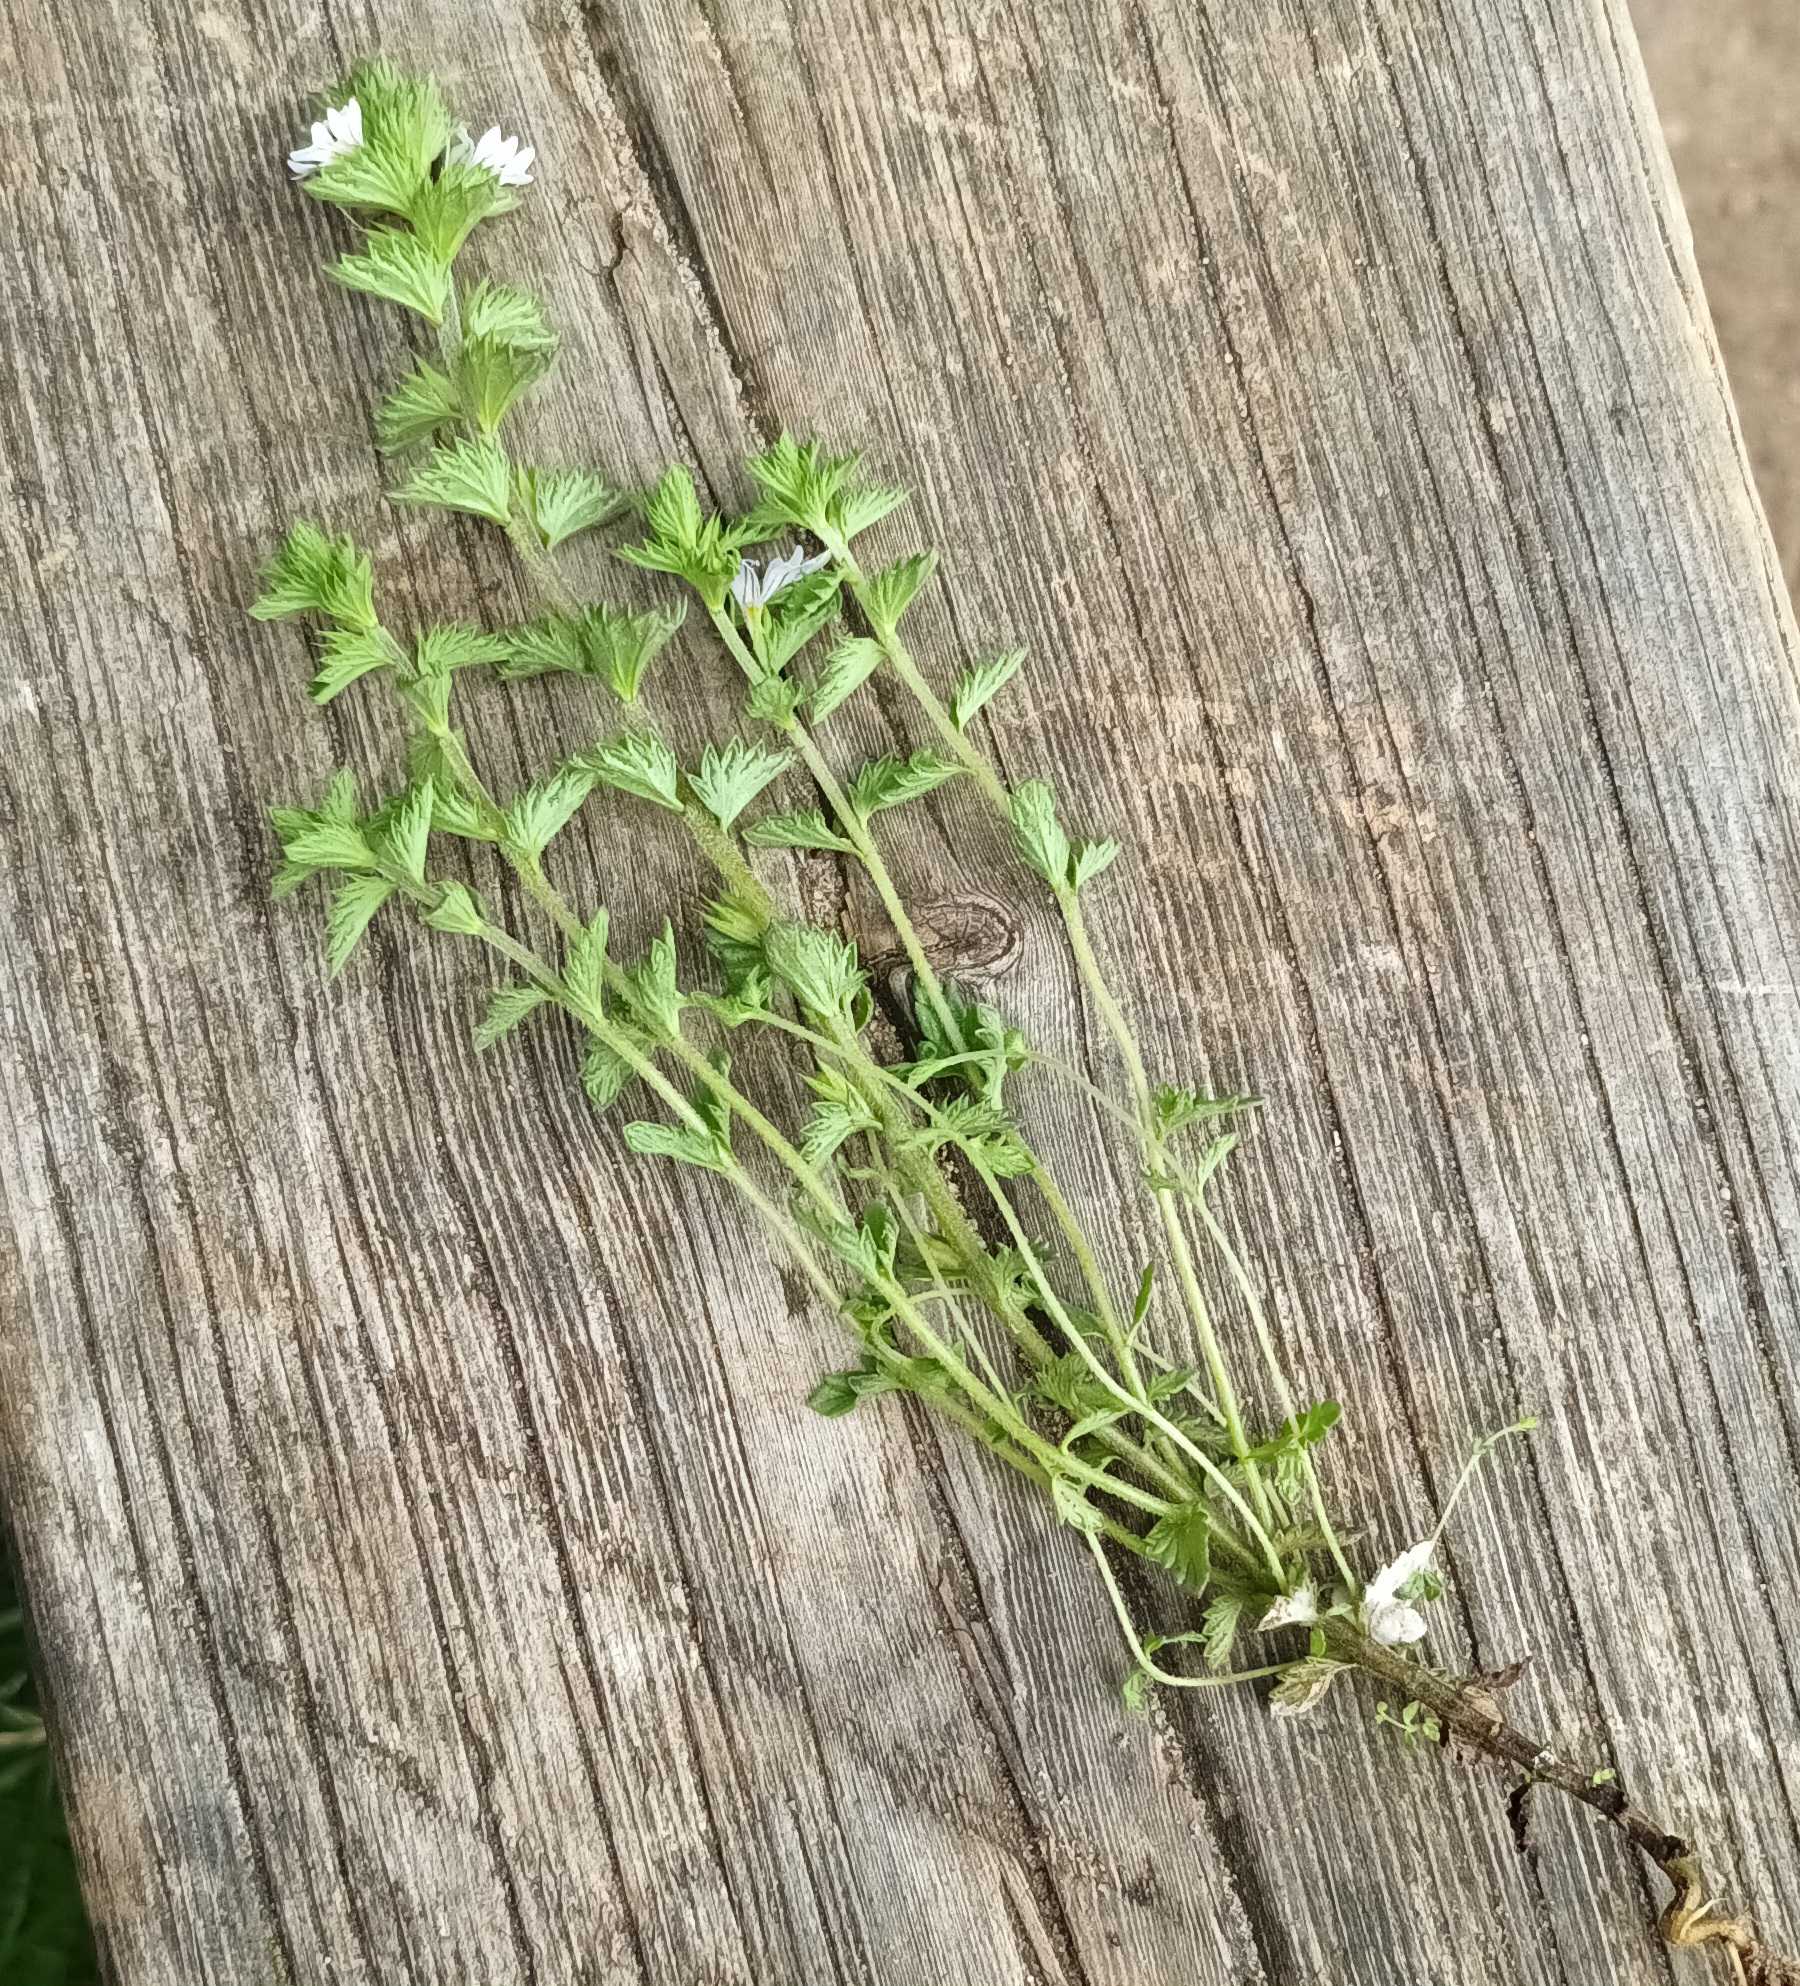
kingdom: Plantae
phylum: Tracheophyta
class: Magnoliopsida
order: Lamiales
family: Orobanchaceae
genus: Euphrasia
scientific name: Euphrasia vernalis
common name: Kirtel-øjentrøst
